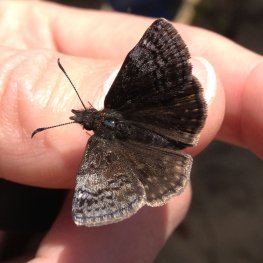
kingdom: Animalia
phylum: Arthropoda
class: Insecta
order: Lepidoptera
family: Hesperiidae
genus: Erynnis
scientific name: Erynnis icelus
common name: Dreamy Duskywing
